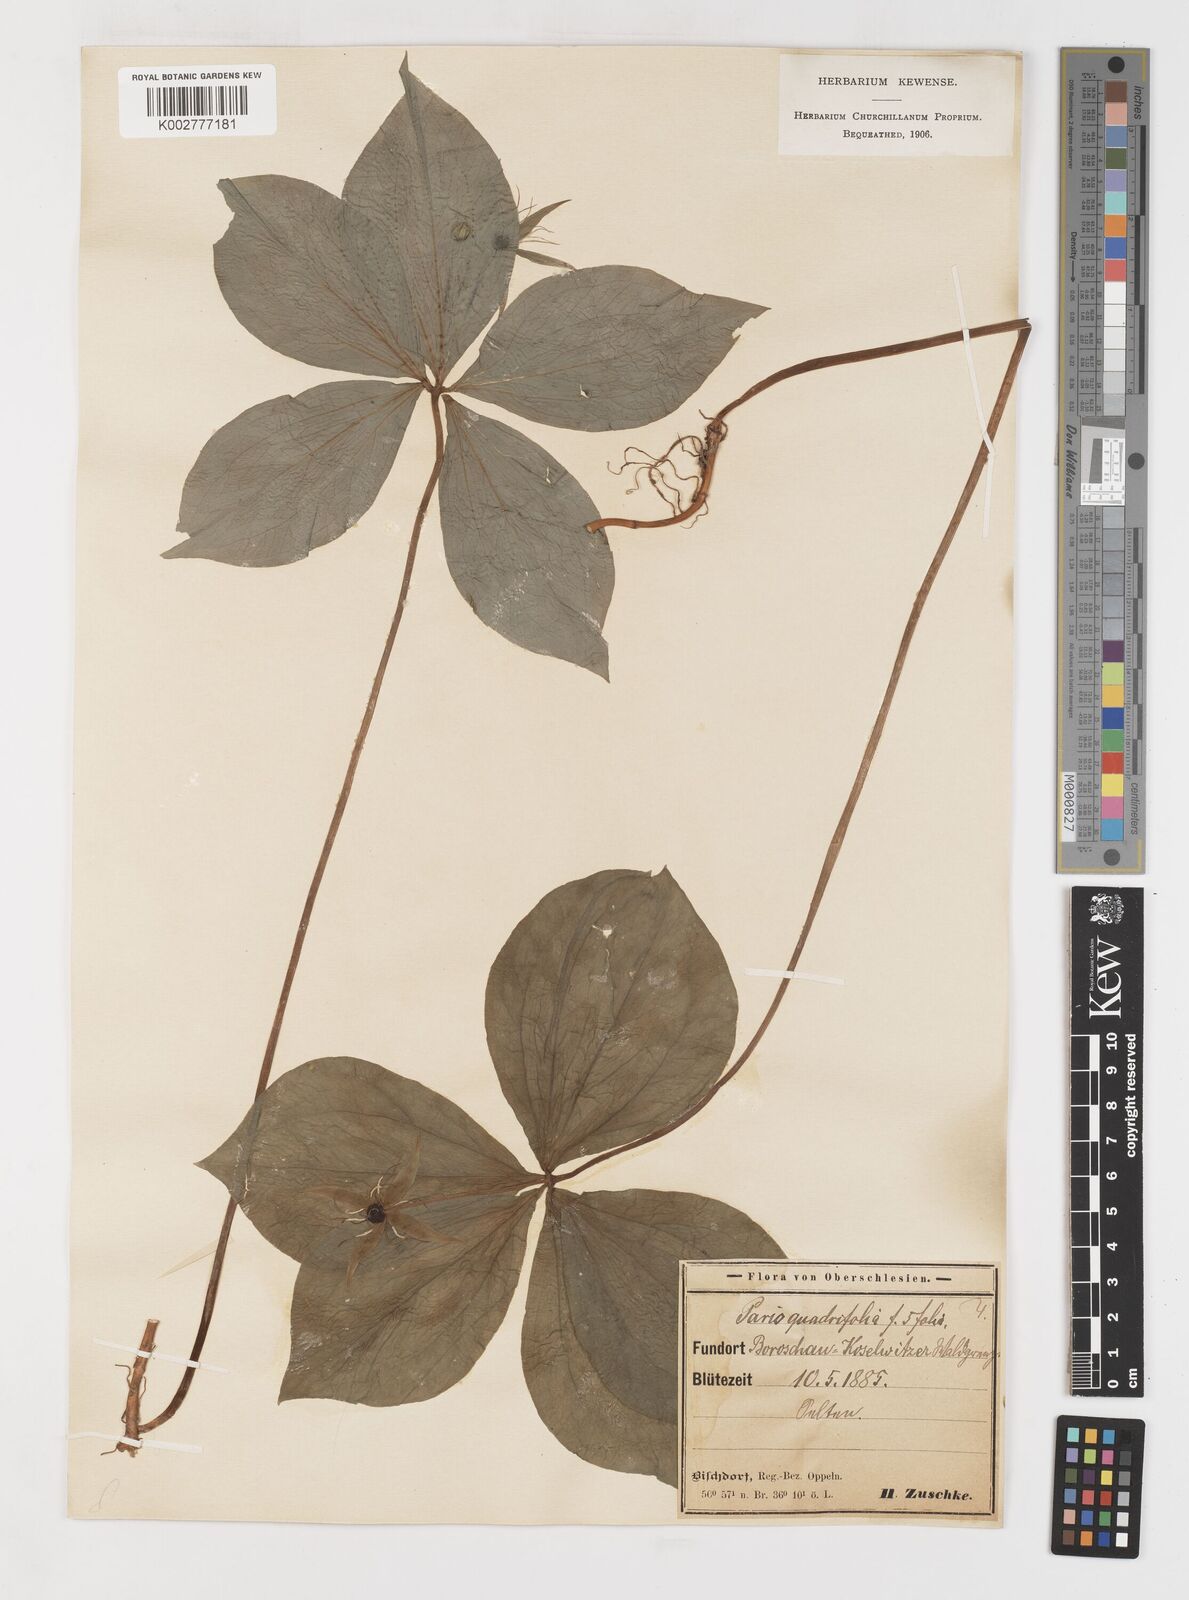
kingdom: Plantae
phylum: Tracheophyta
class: Liliopsida
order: Liliales
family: Melanthiaceae
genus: Paris
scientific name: Paris quadrifolia
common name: Herb-paris
